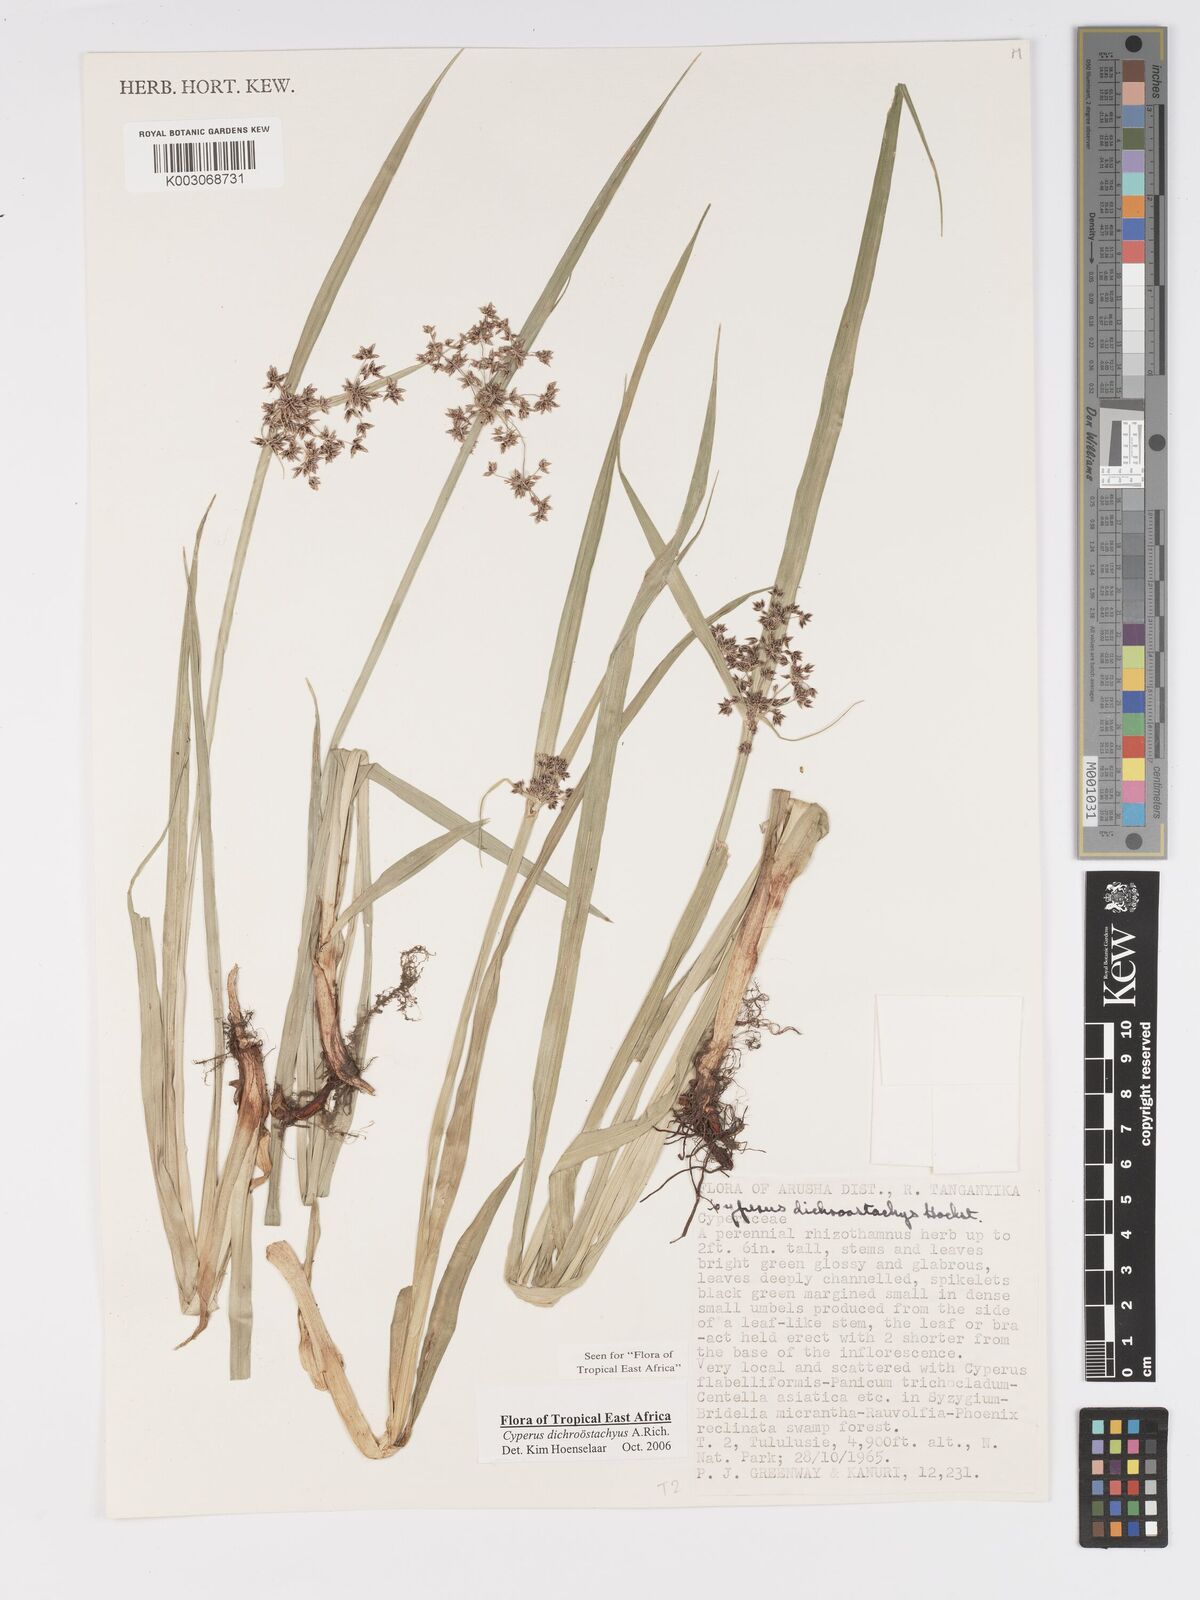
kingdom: Plantae
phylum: Tracheophyta
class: Liliopsida
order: Poales
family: Cyperaceae
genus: Cyperus
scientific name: Cyperus dichrostachyus
